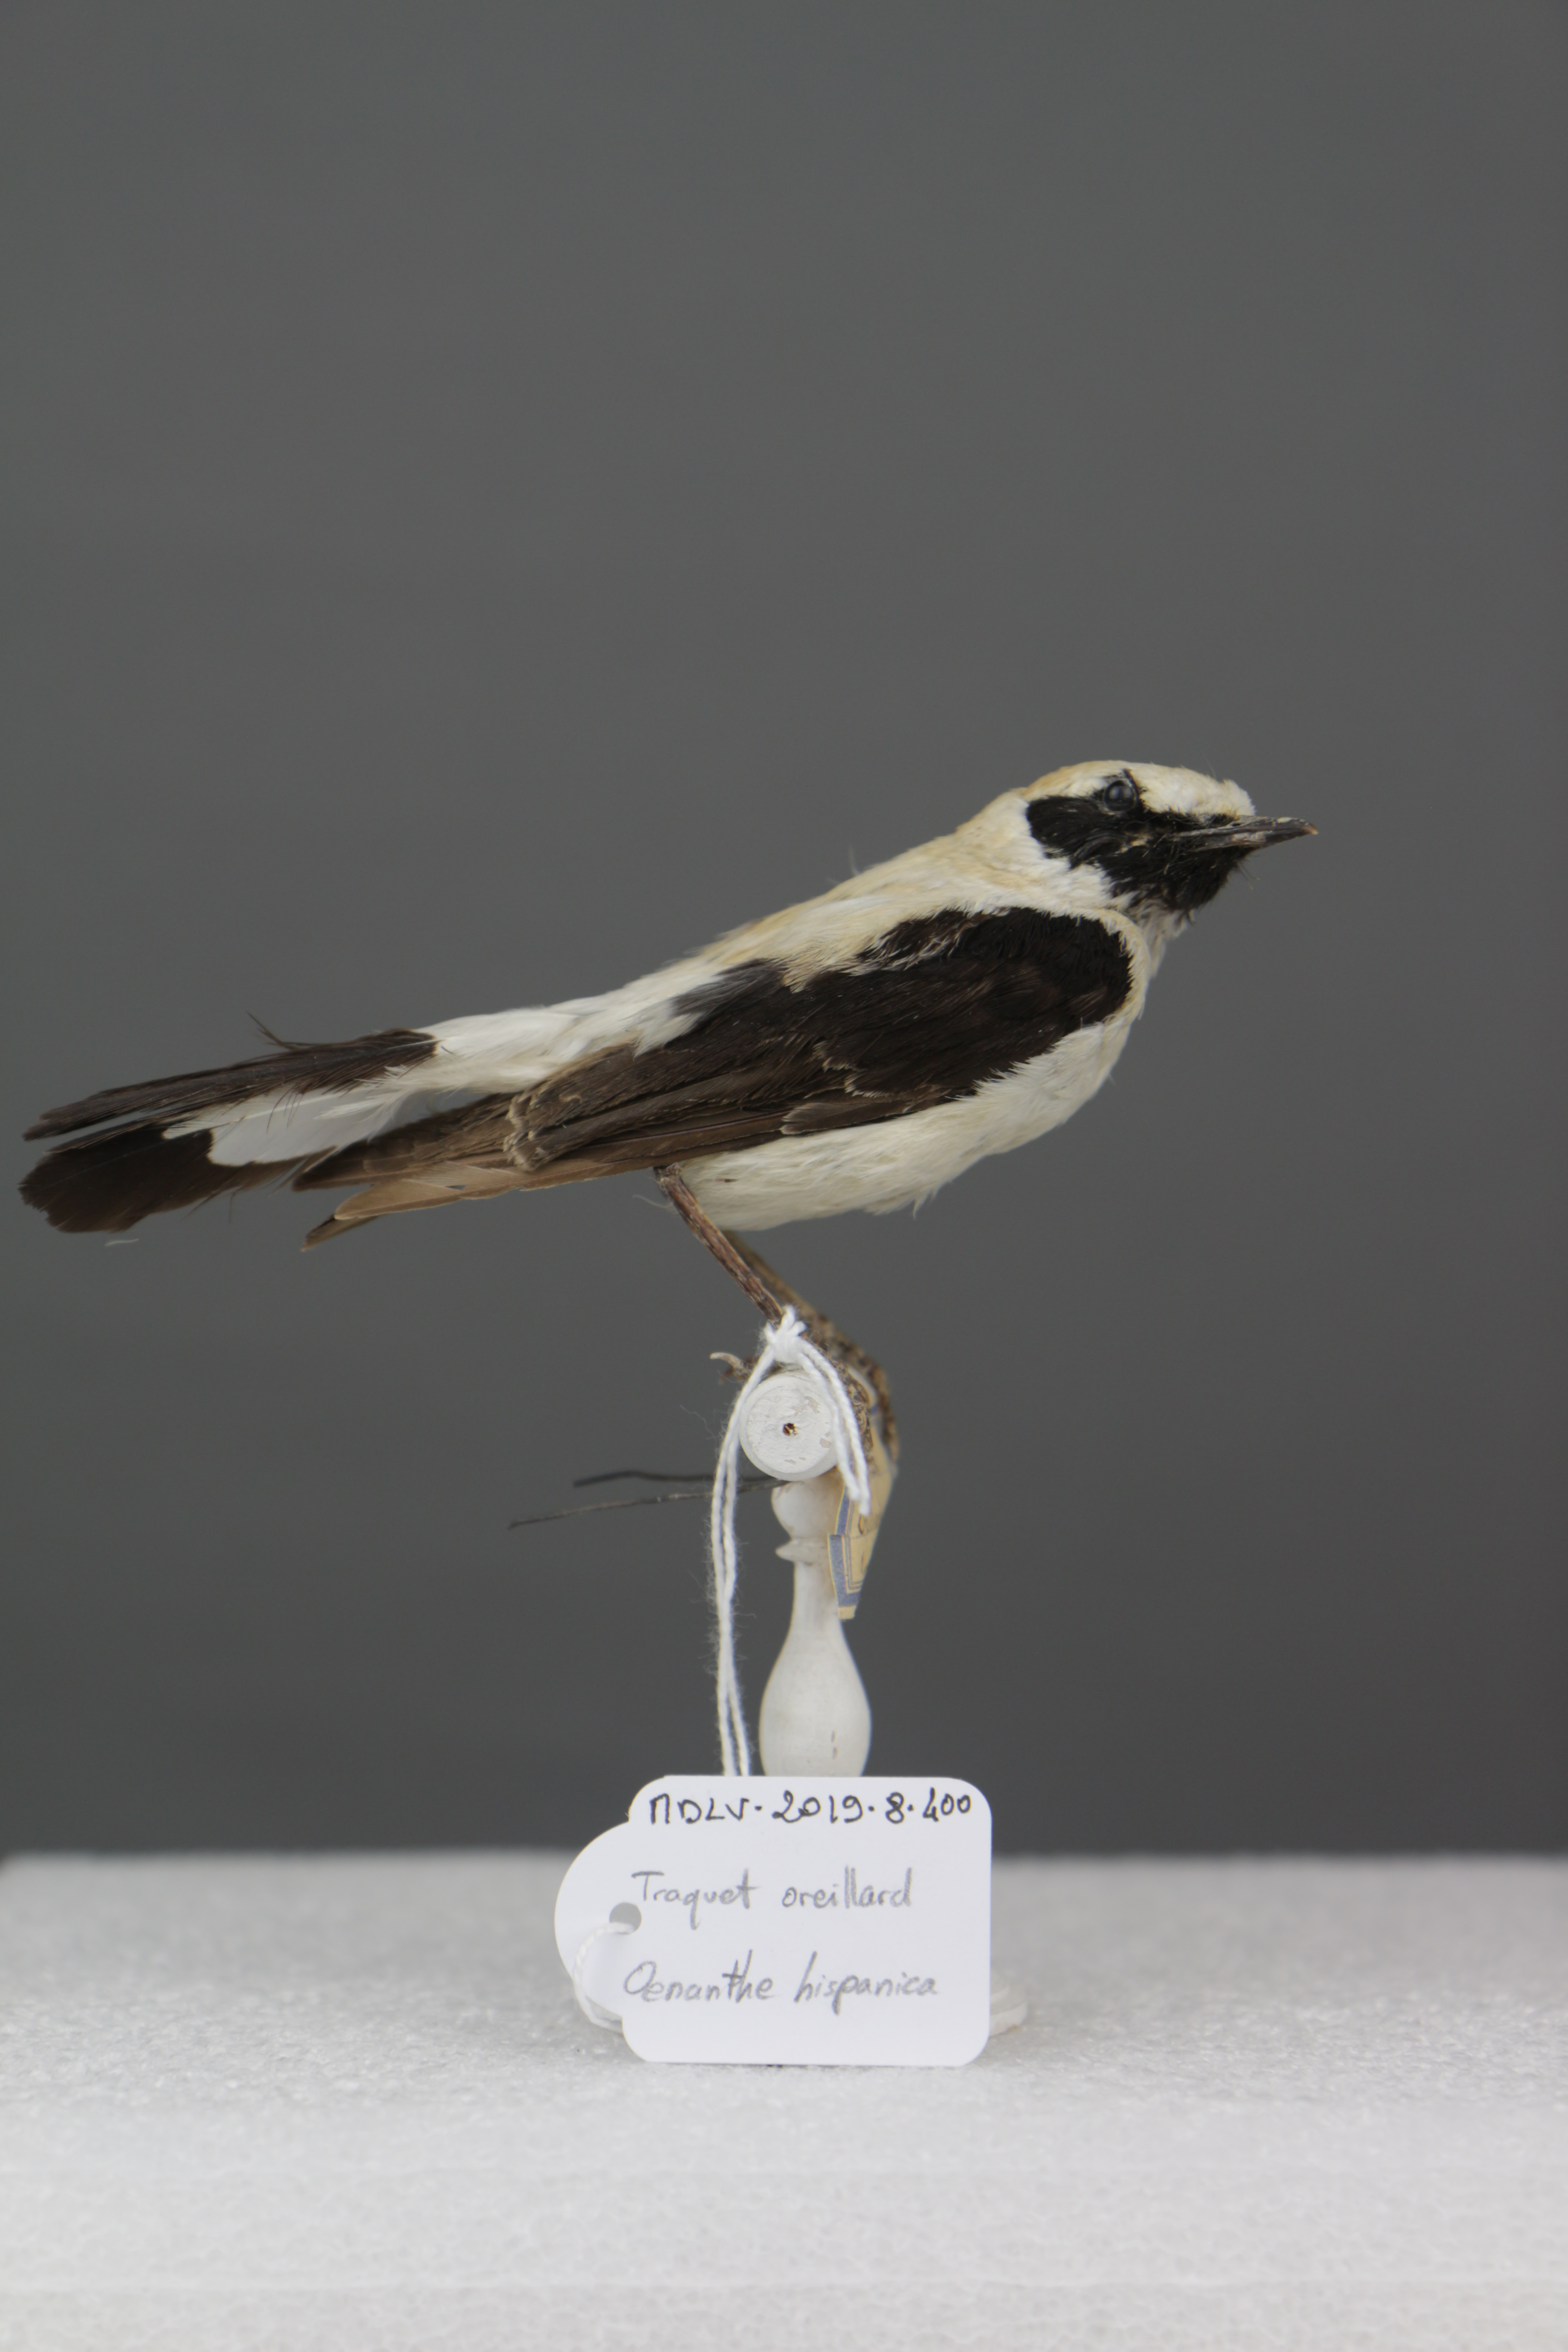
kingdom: Animalia
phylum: Chordata
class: Aves
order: Passeriformes
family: Muscicapidae
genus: Oenanthe
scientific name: Oenanthe hispanica
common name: Black-eared wheatear
